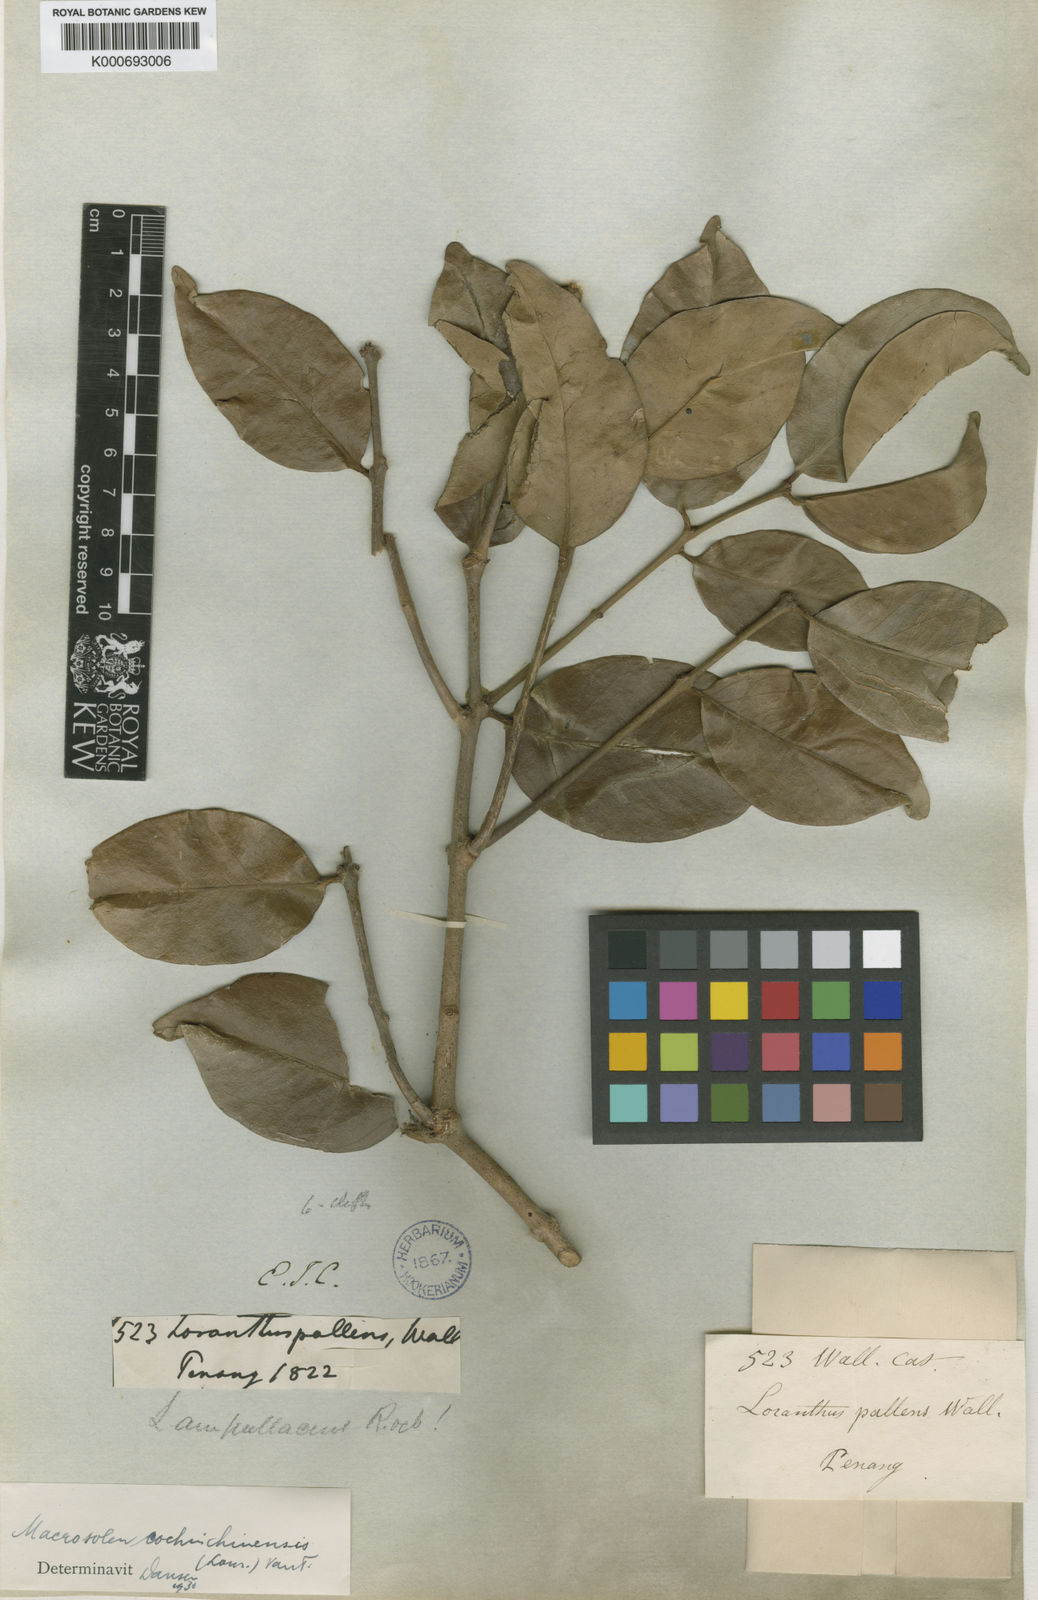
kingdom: Plantae
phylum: Tracheophyta
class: Magnoliopsida
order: Santalales
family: Loranthaceae
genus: Macrosolen
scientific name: Macrosolen cochinchinensis
